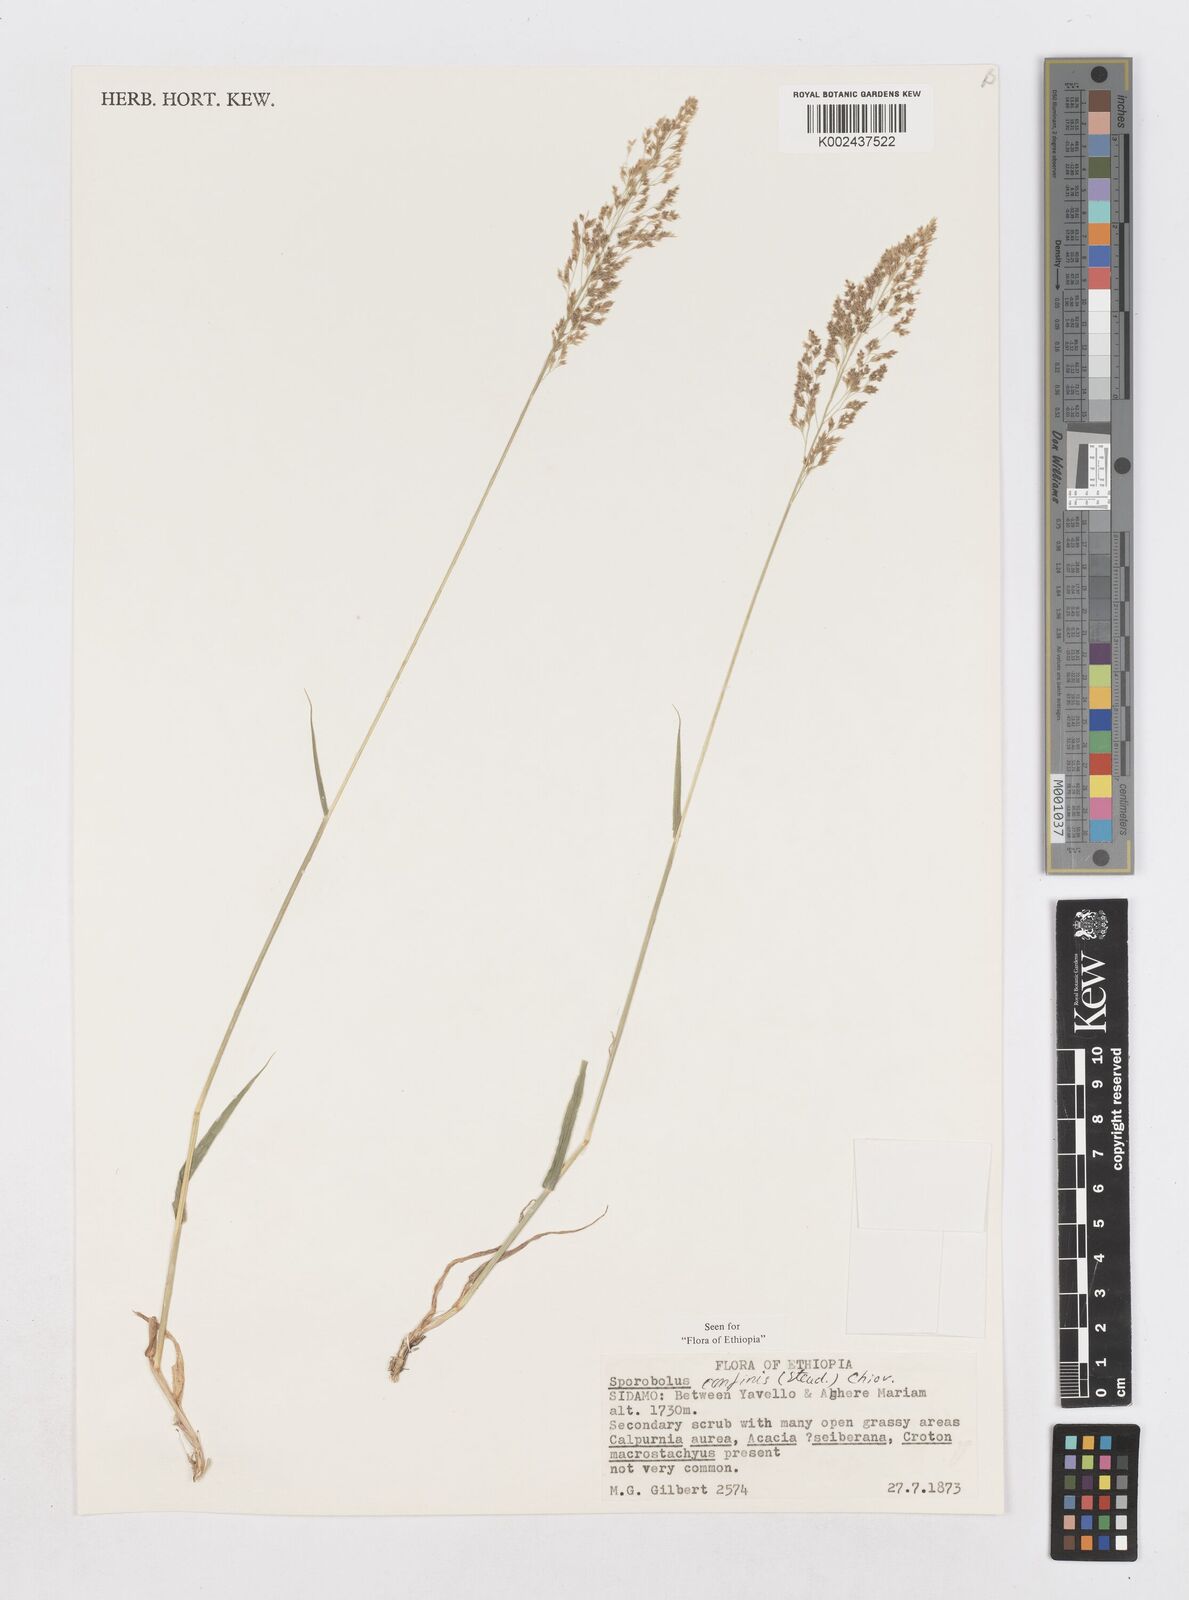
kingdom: Plantae
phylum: Tracheophyta
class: Liliopsida
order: Poales
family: Poaceae
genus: Sporobolus
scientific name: Sporobolus confinis
